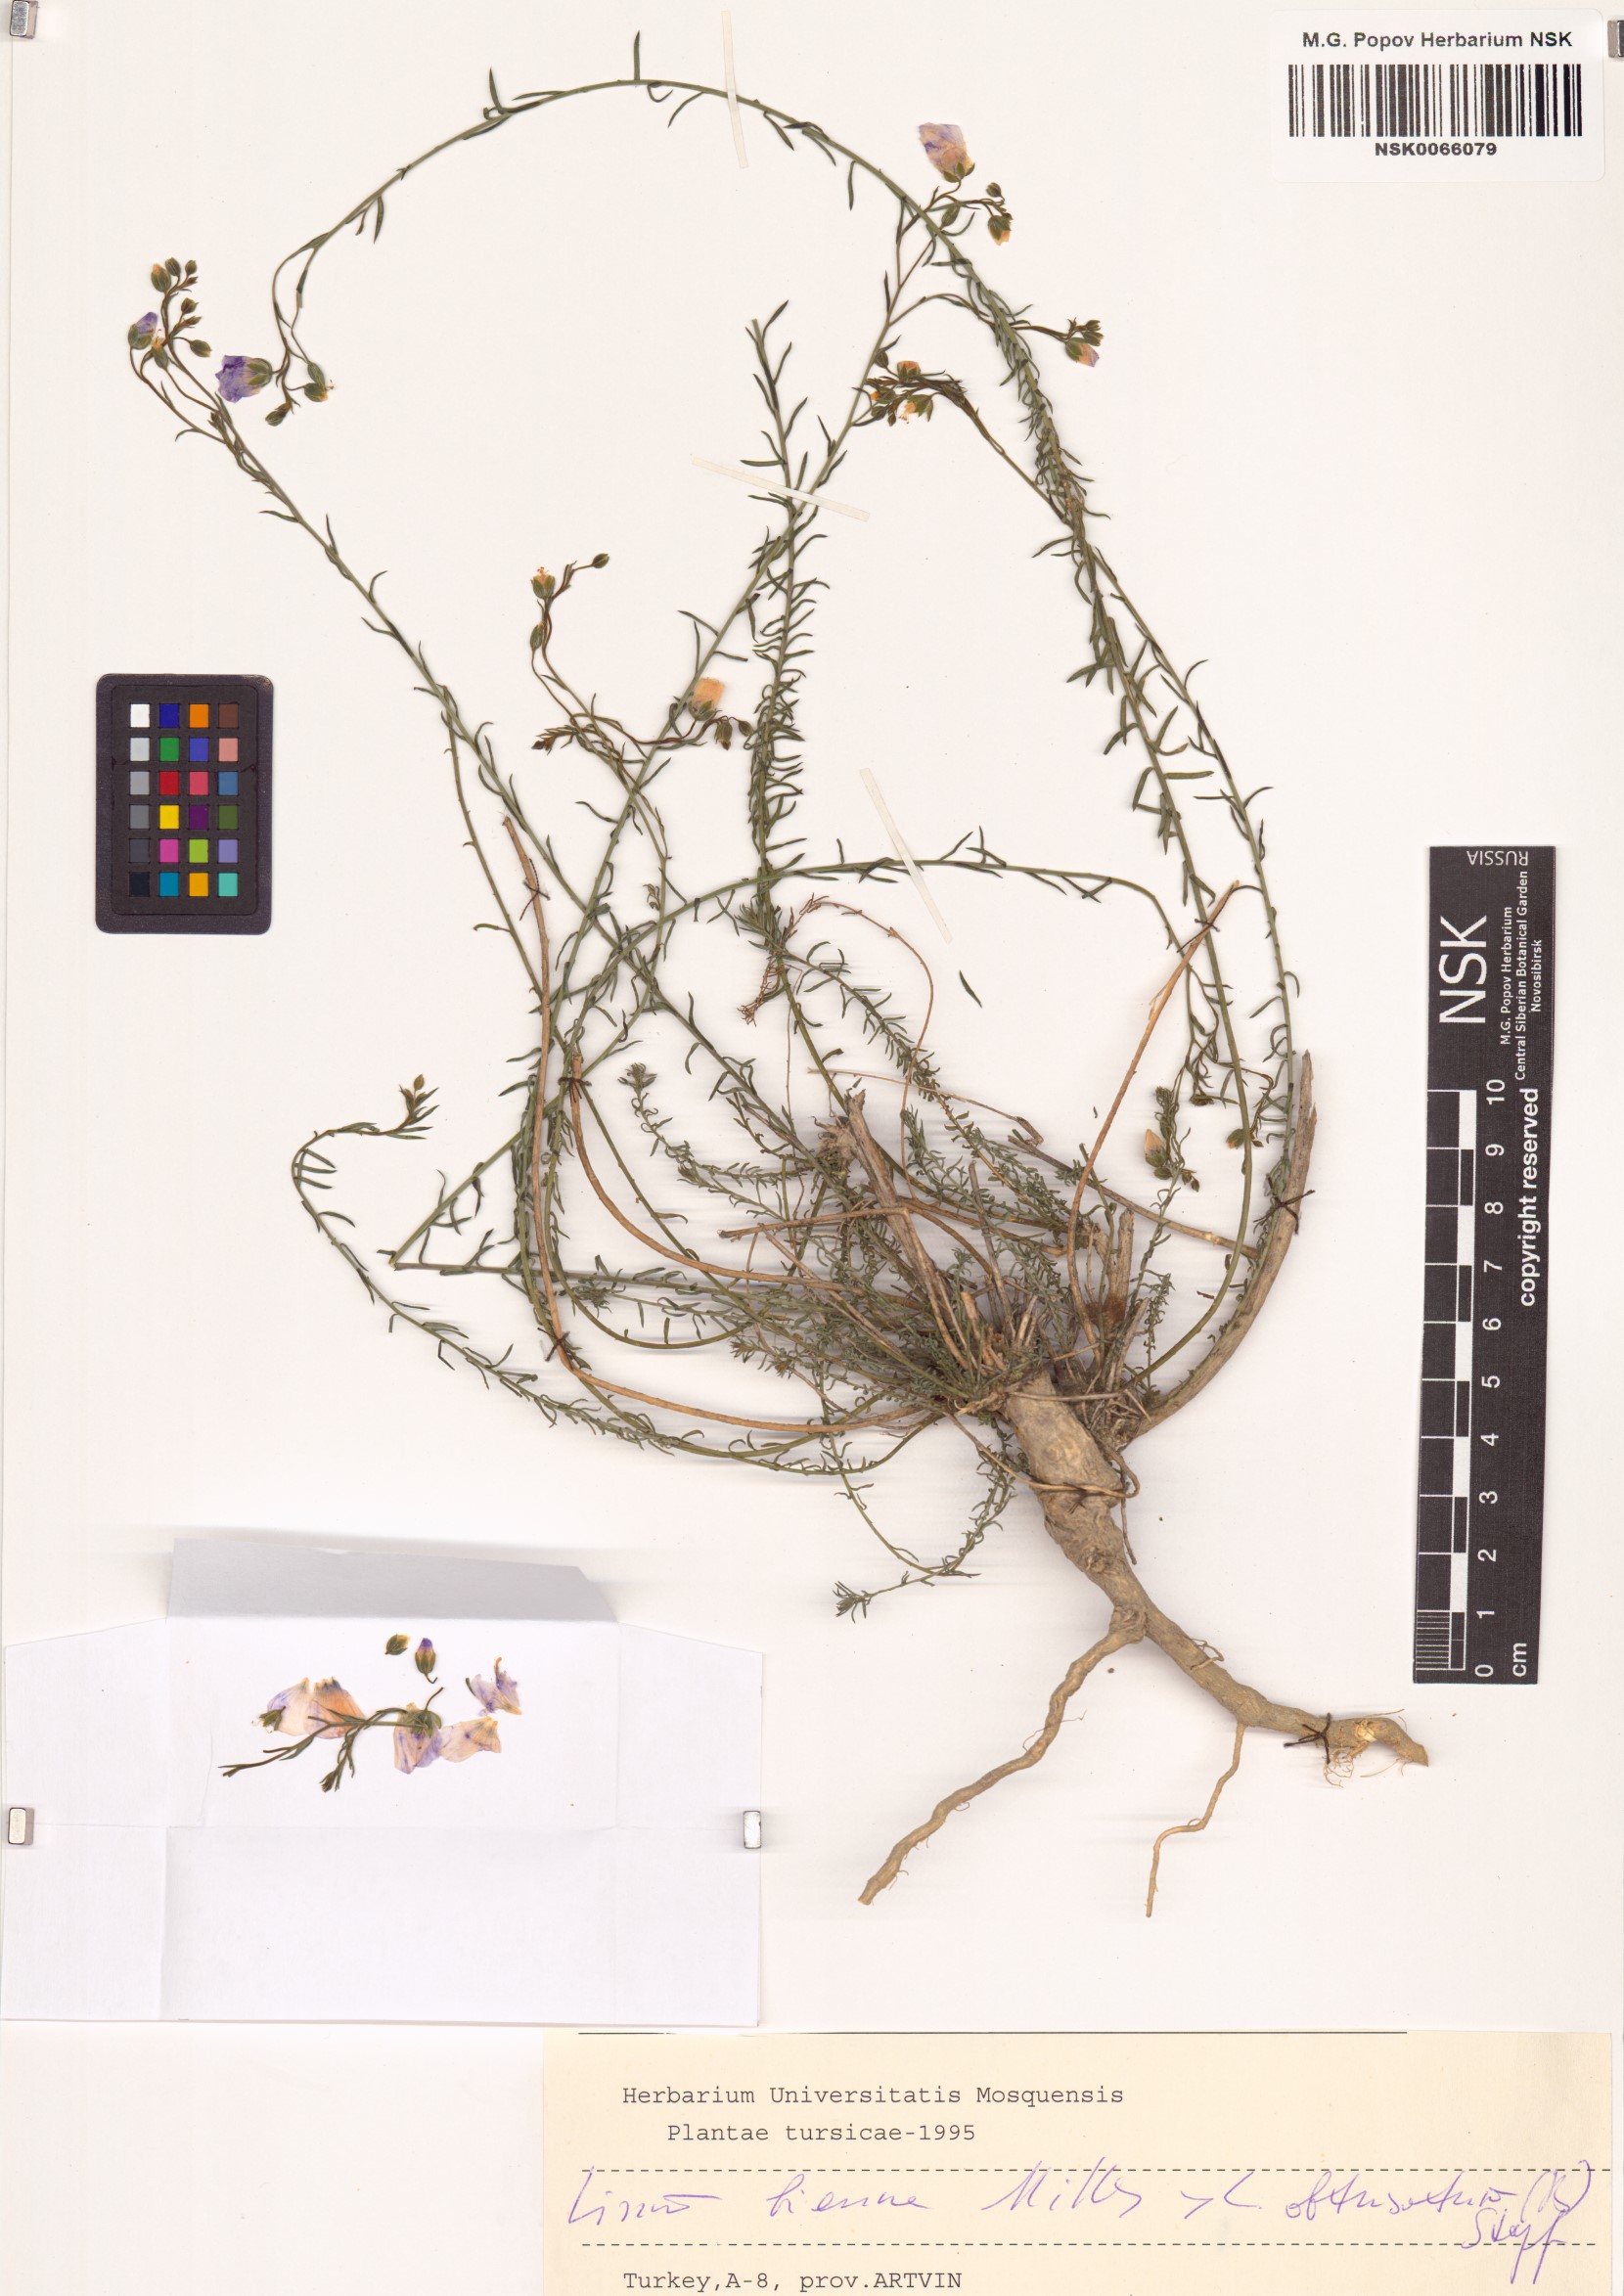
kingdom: Plantae
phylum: Tracheophyta
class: Magnoliopsida
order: Malpighiales
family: Linaceae
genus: Linum
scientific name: Linum bienne
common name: Pale flax
